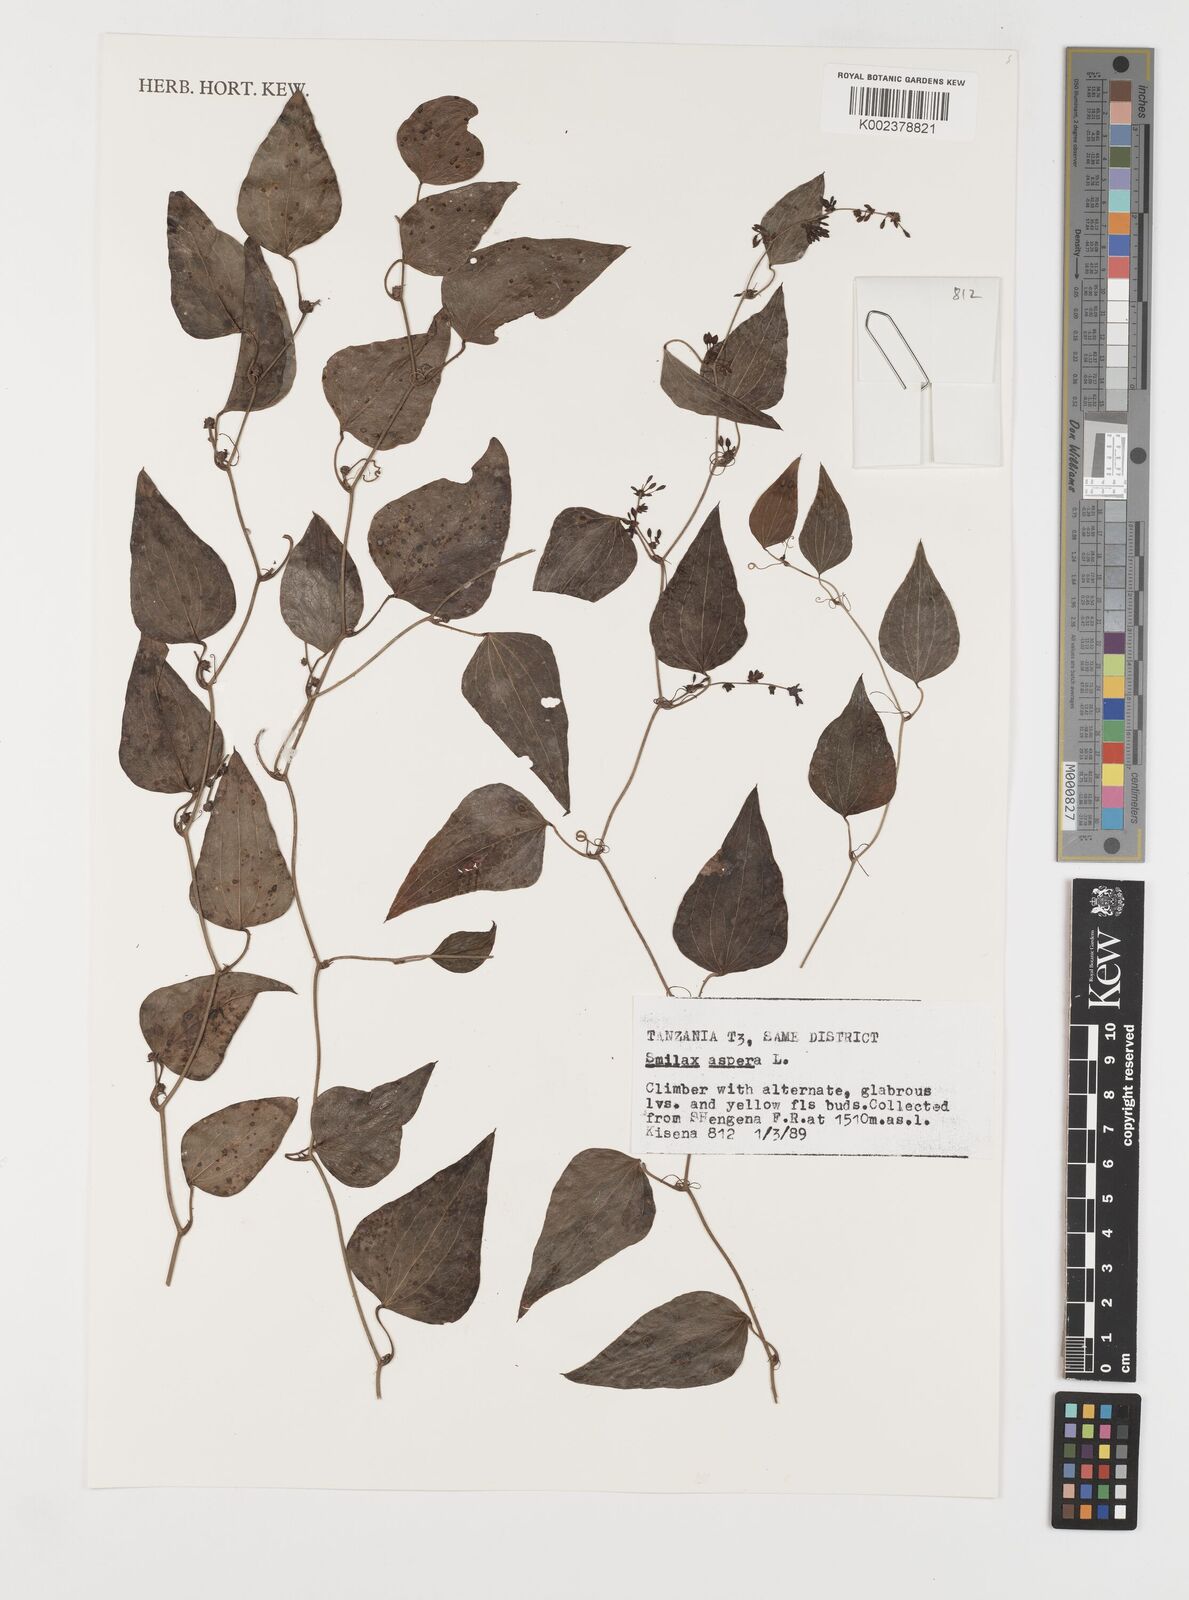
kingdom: Plantae
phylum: Tracheophyta
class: Liliopsida
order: Liliales
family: Smilacaceae
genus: Smilax
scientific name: Smilax aspera
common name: Common smilax
